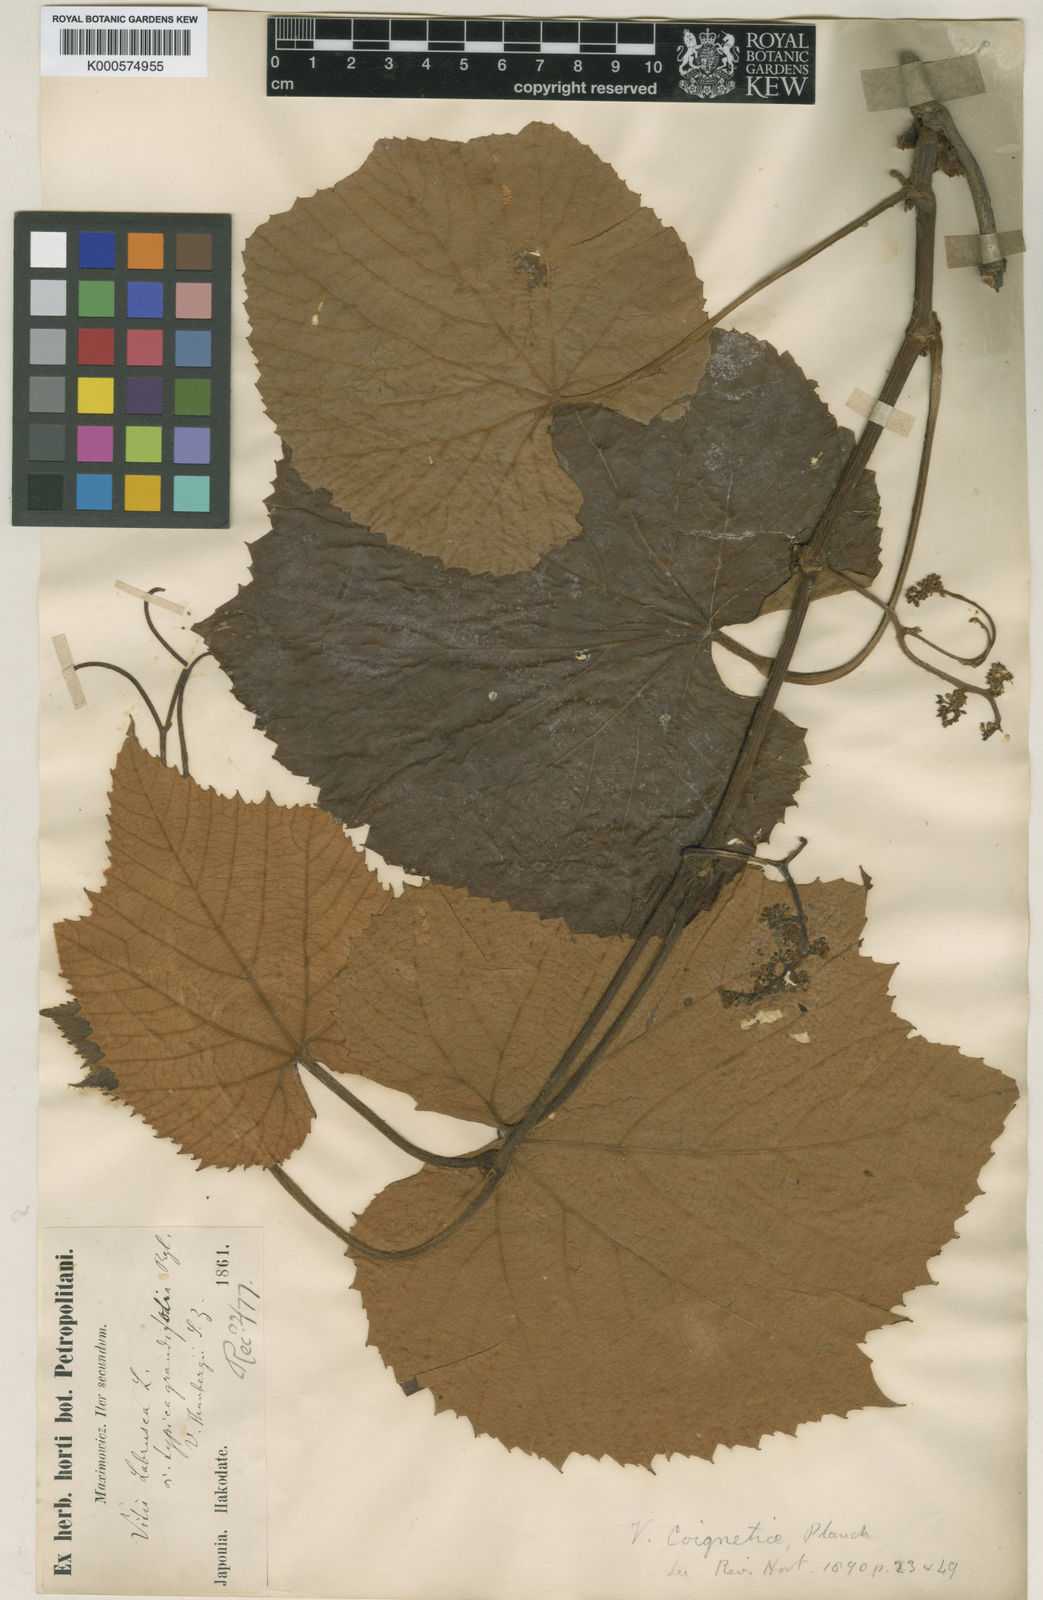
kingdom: Plantae
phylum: Tracheophyta
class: Magnoliopsida
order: Vitales
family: Vitaceae
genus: Vitis
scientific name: Vitis coignetiae
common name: Crimson gloryvine
